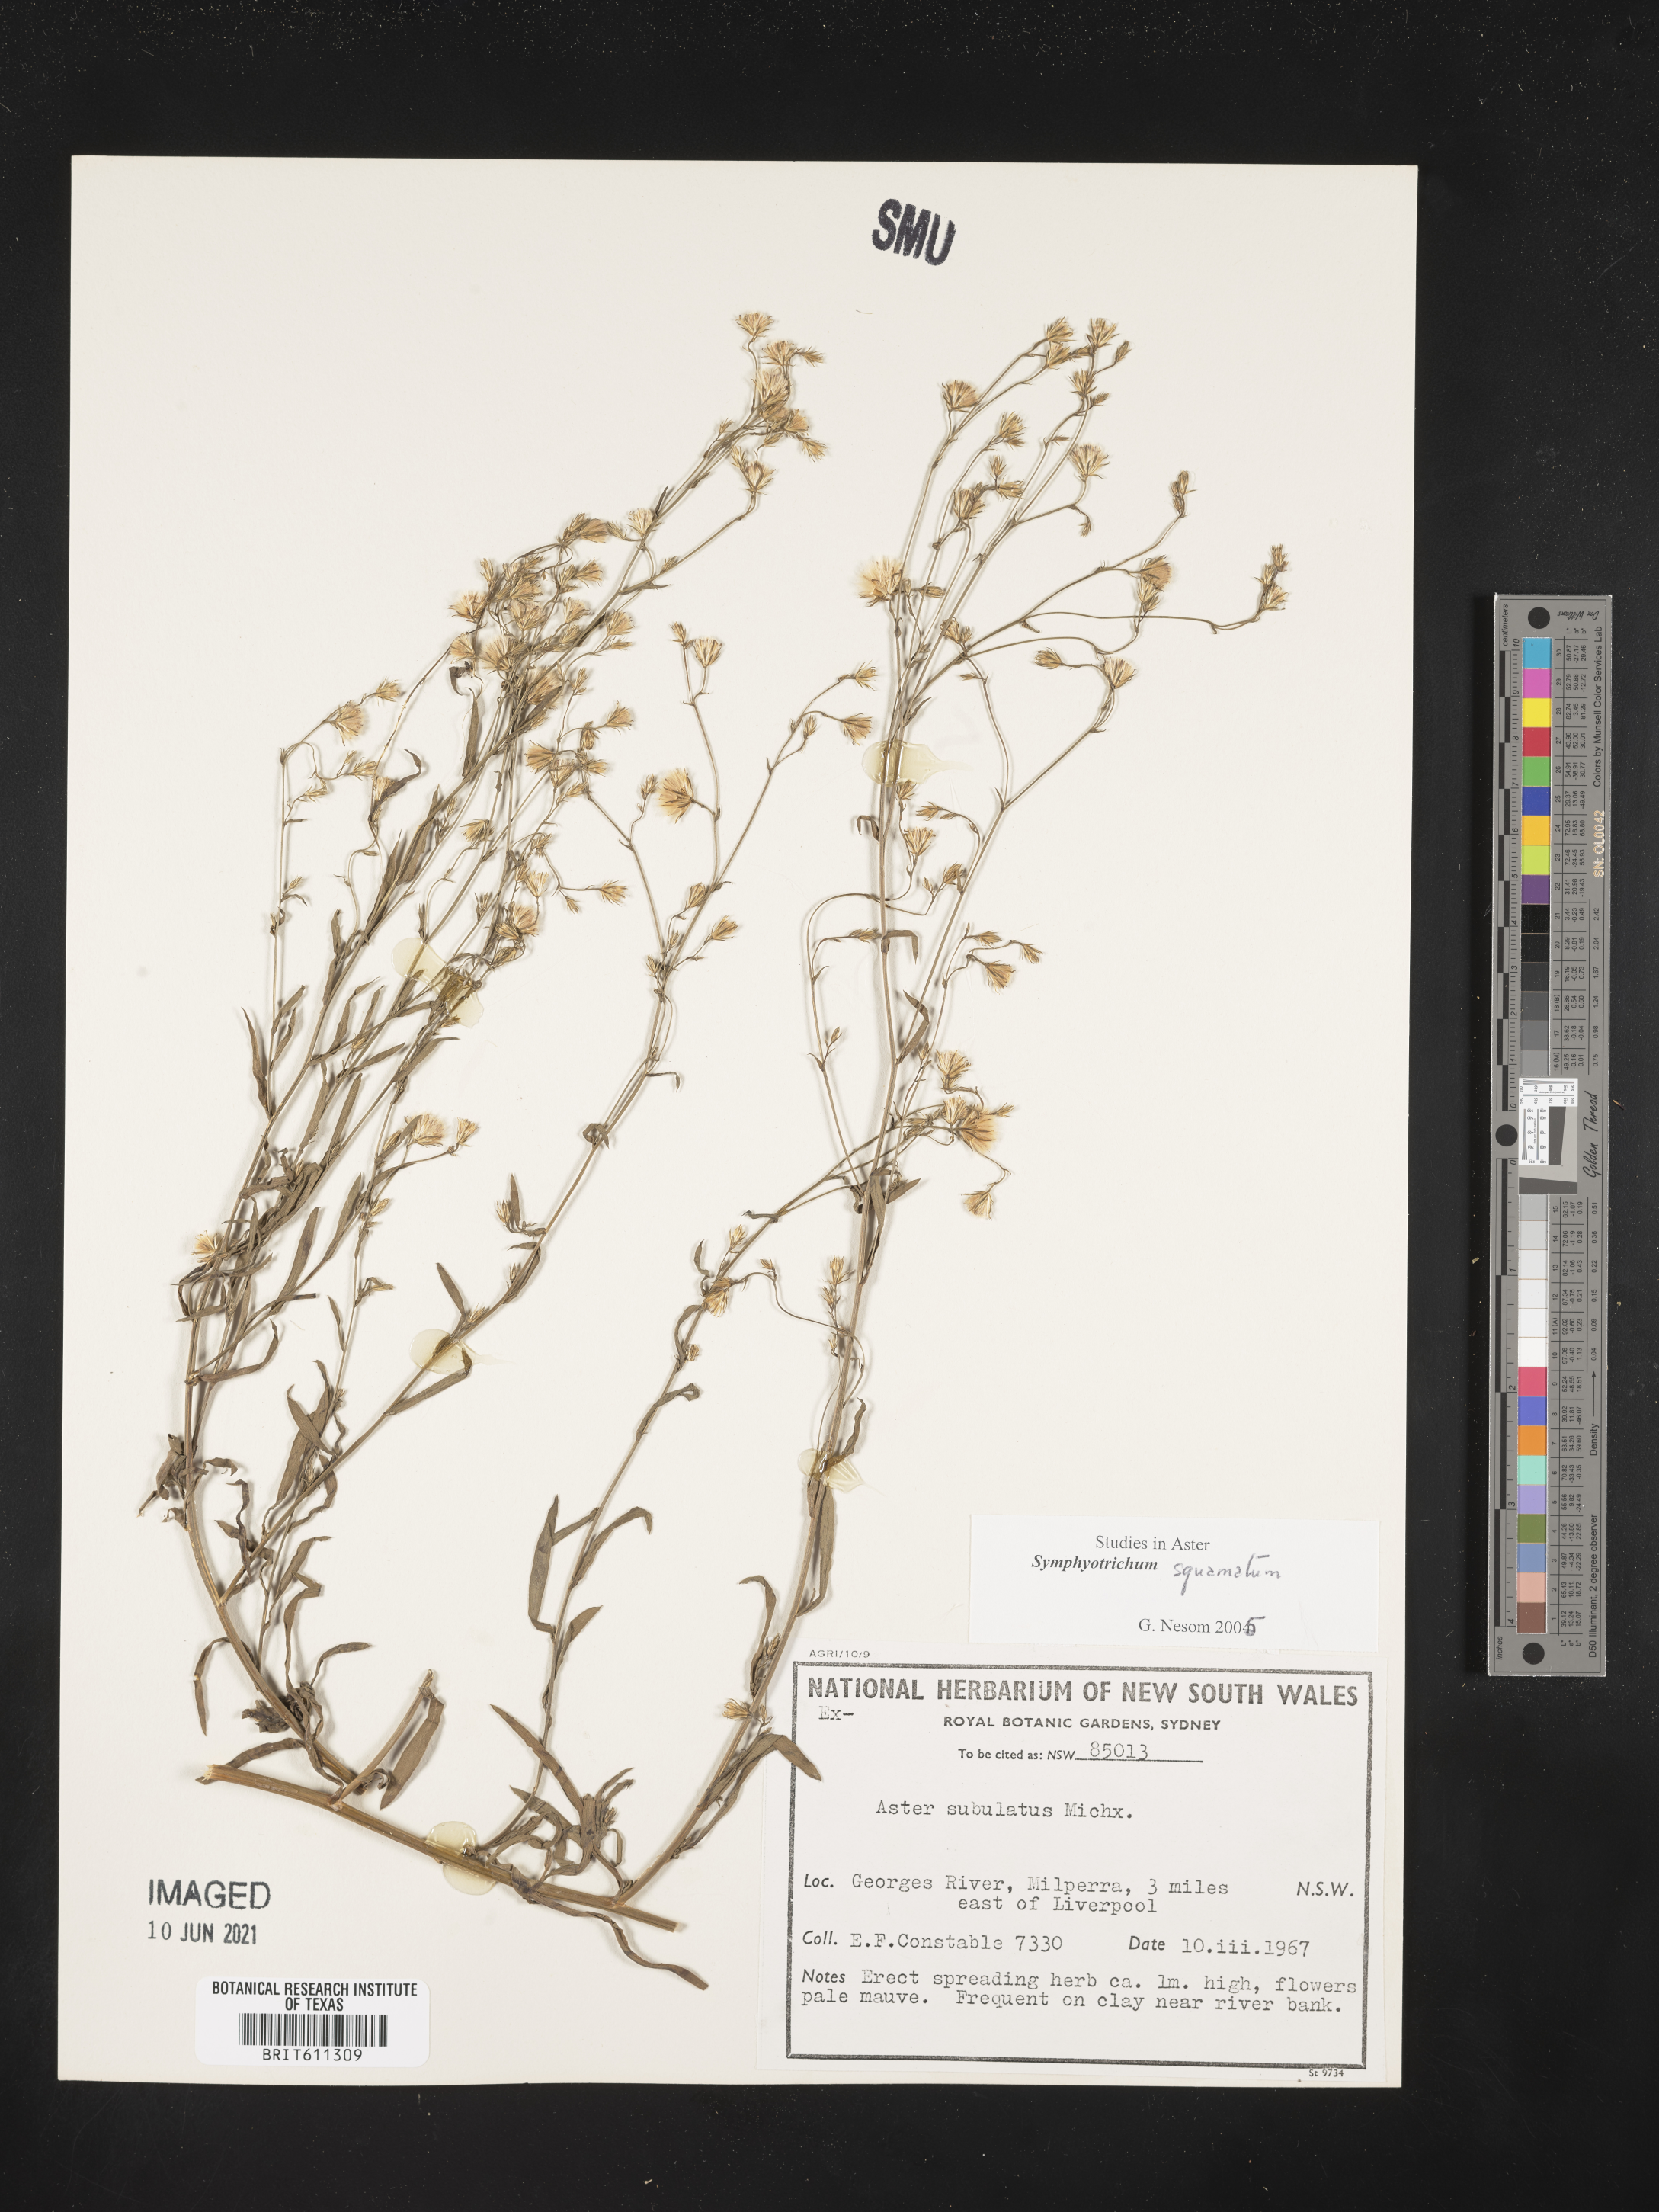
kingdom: Plantae
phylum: Tracheophyta
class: Magnoliopsida
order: Asterales
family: Asteraceae
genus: Symphyotrichum
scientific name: Symphyotrichum squamatum
